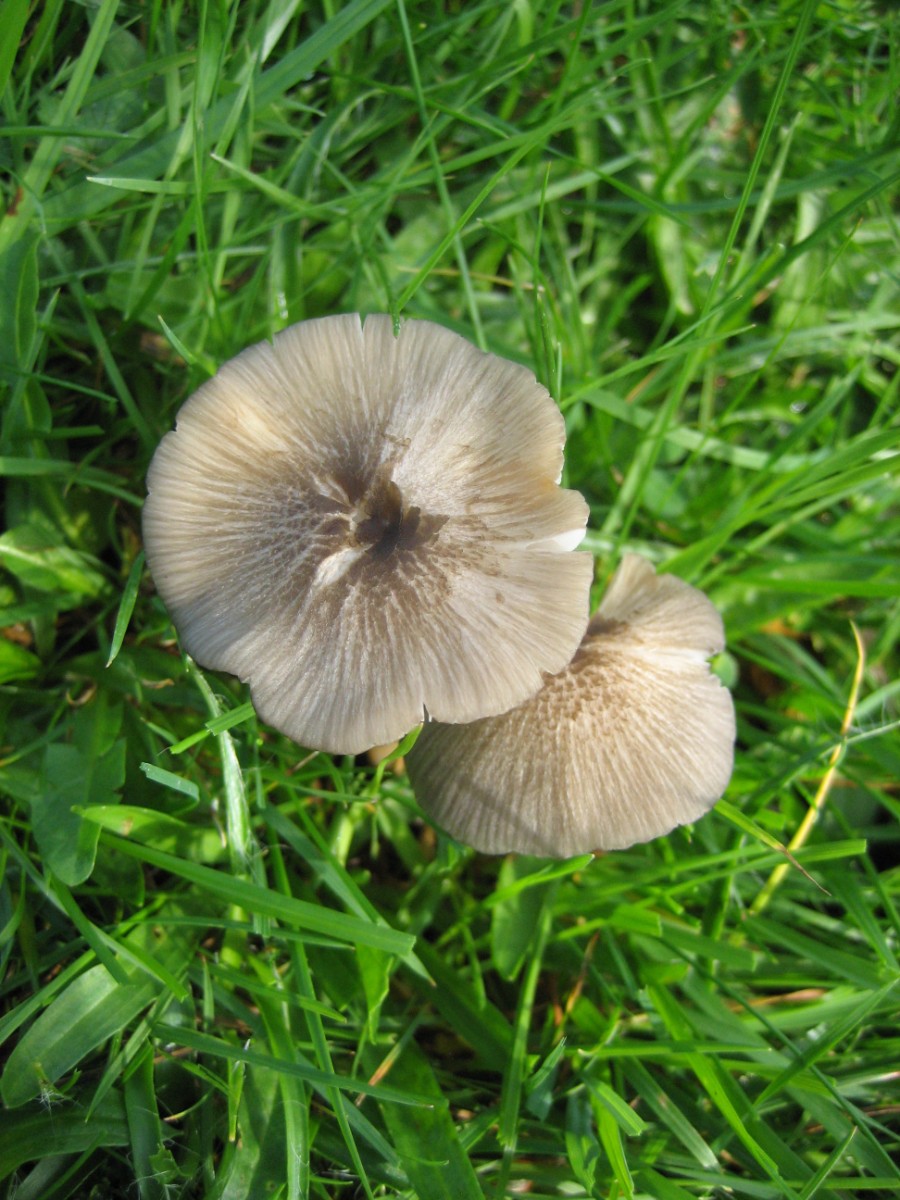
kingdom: Fungi
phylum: Basidiomycota
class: Agaricomycetes
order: Agaricales
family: Entolomataceae
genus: Entoloma
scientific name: Entoloma exile
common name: rødplettet rødblad
